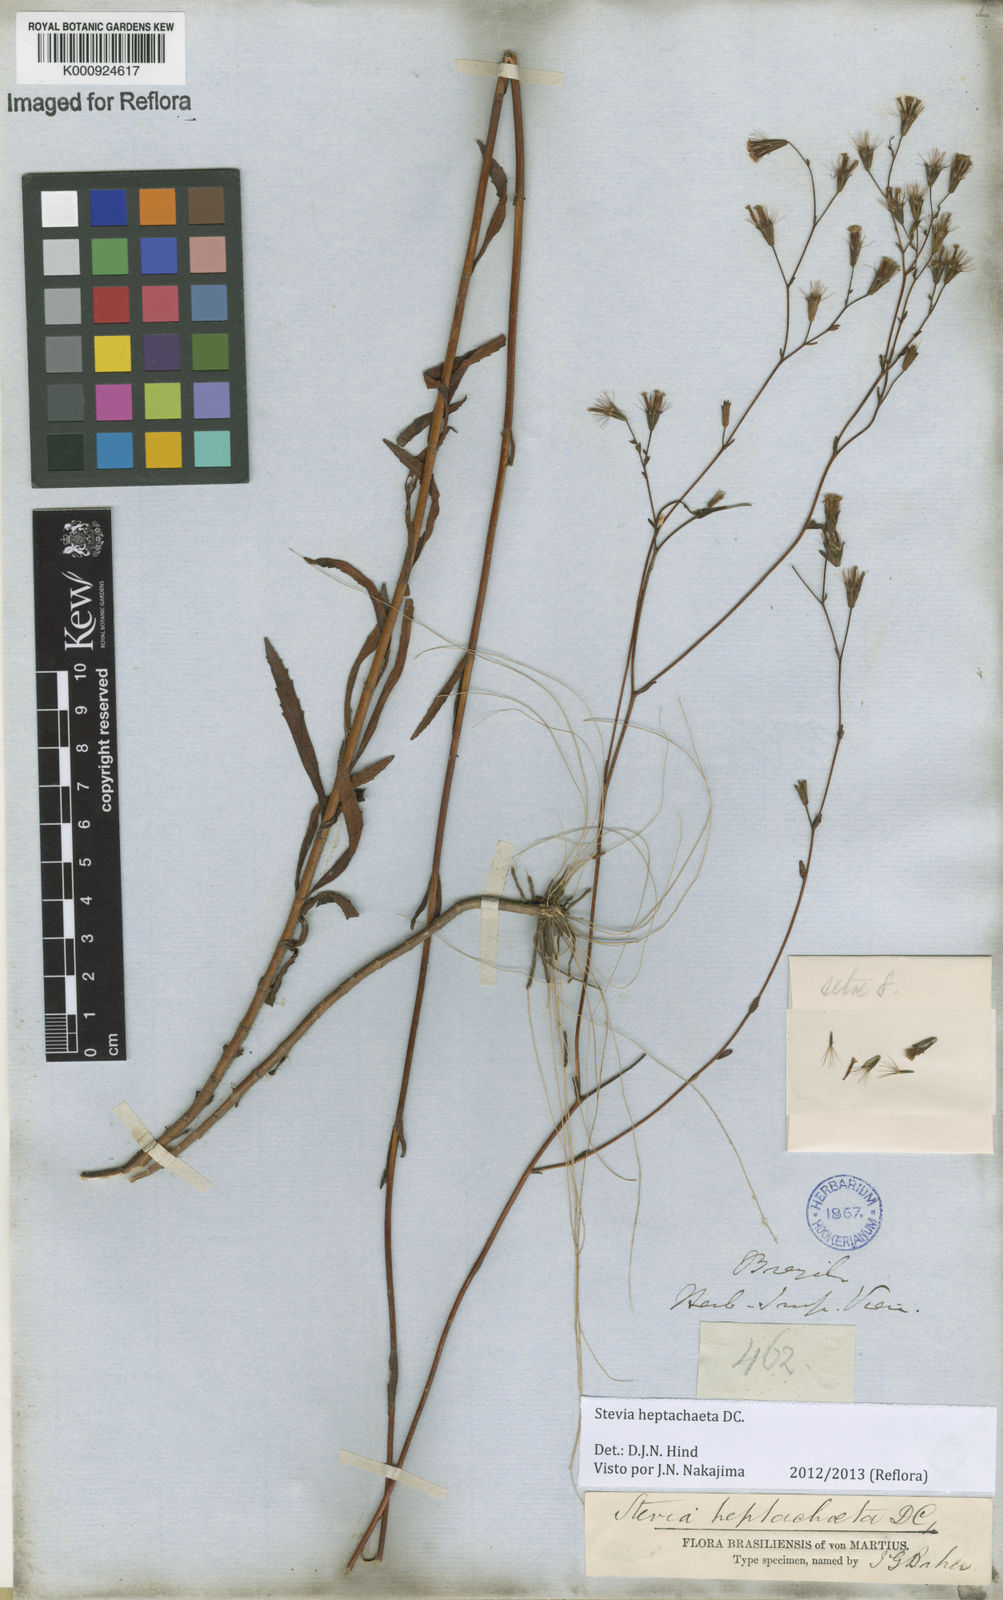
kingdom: Plantae
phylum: Tracheophyta
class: Magnoliopsida
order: Asterales
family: Asteraceae
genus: Stevia
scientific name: Stevia heptachaeta
